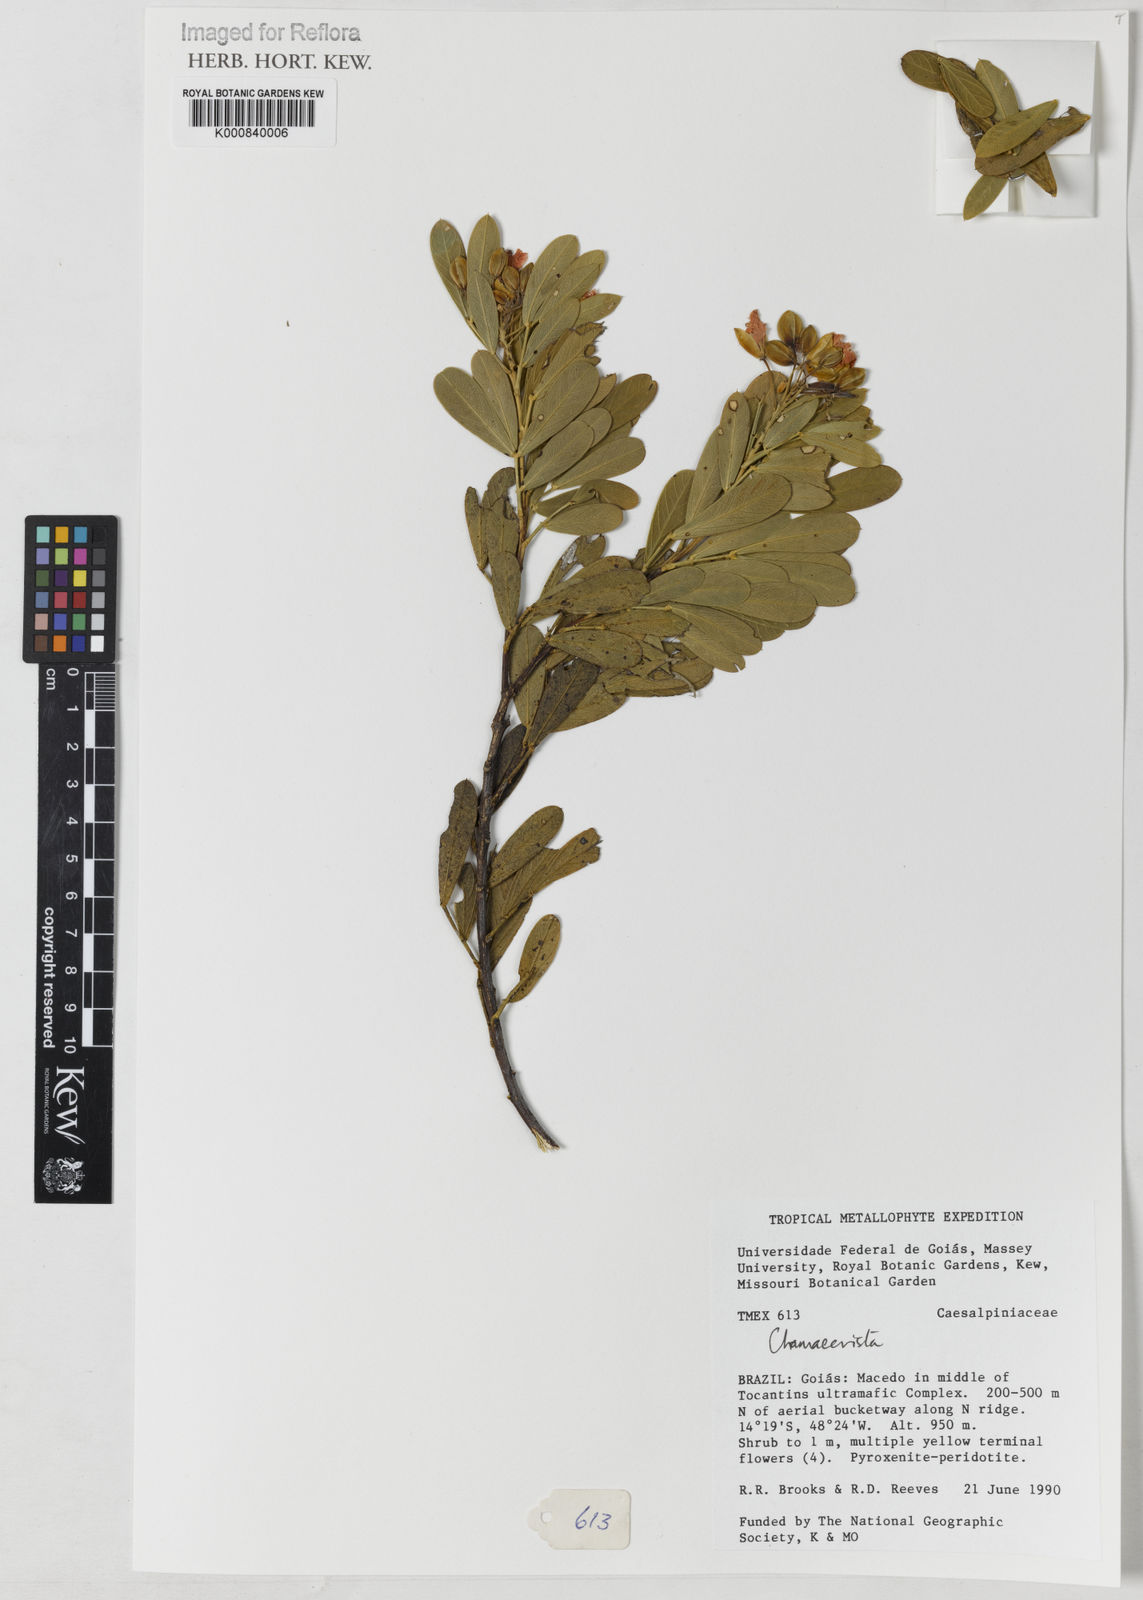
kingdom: Plantae
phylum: Tracheophyta
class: Magnoliopsida
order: Fabales
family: Fabaceae
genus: Chamaecrista
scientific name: Chamaecrista conferta
